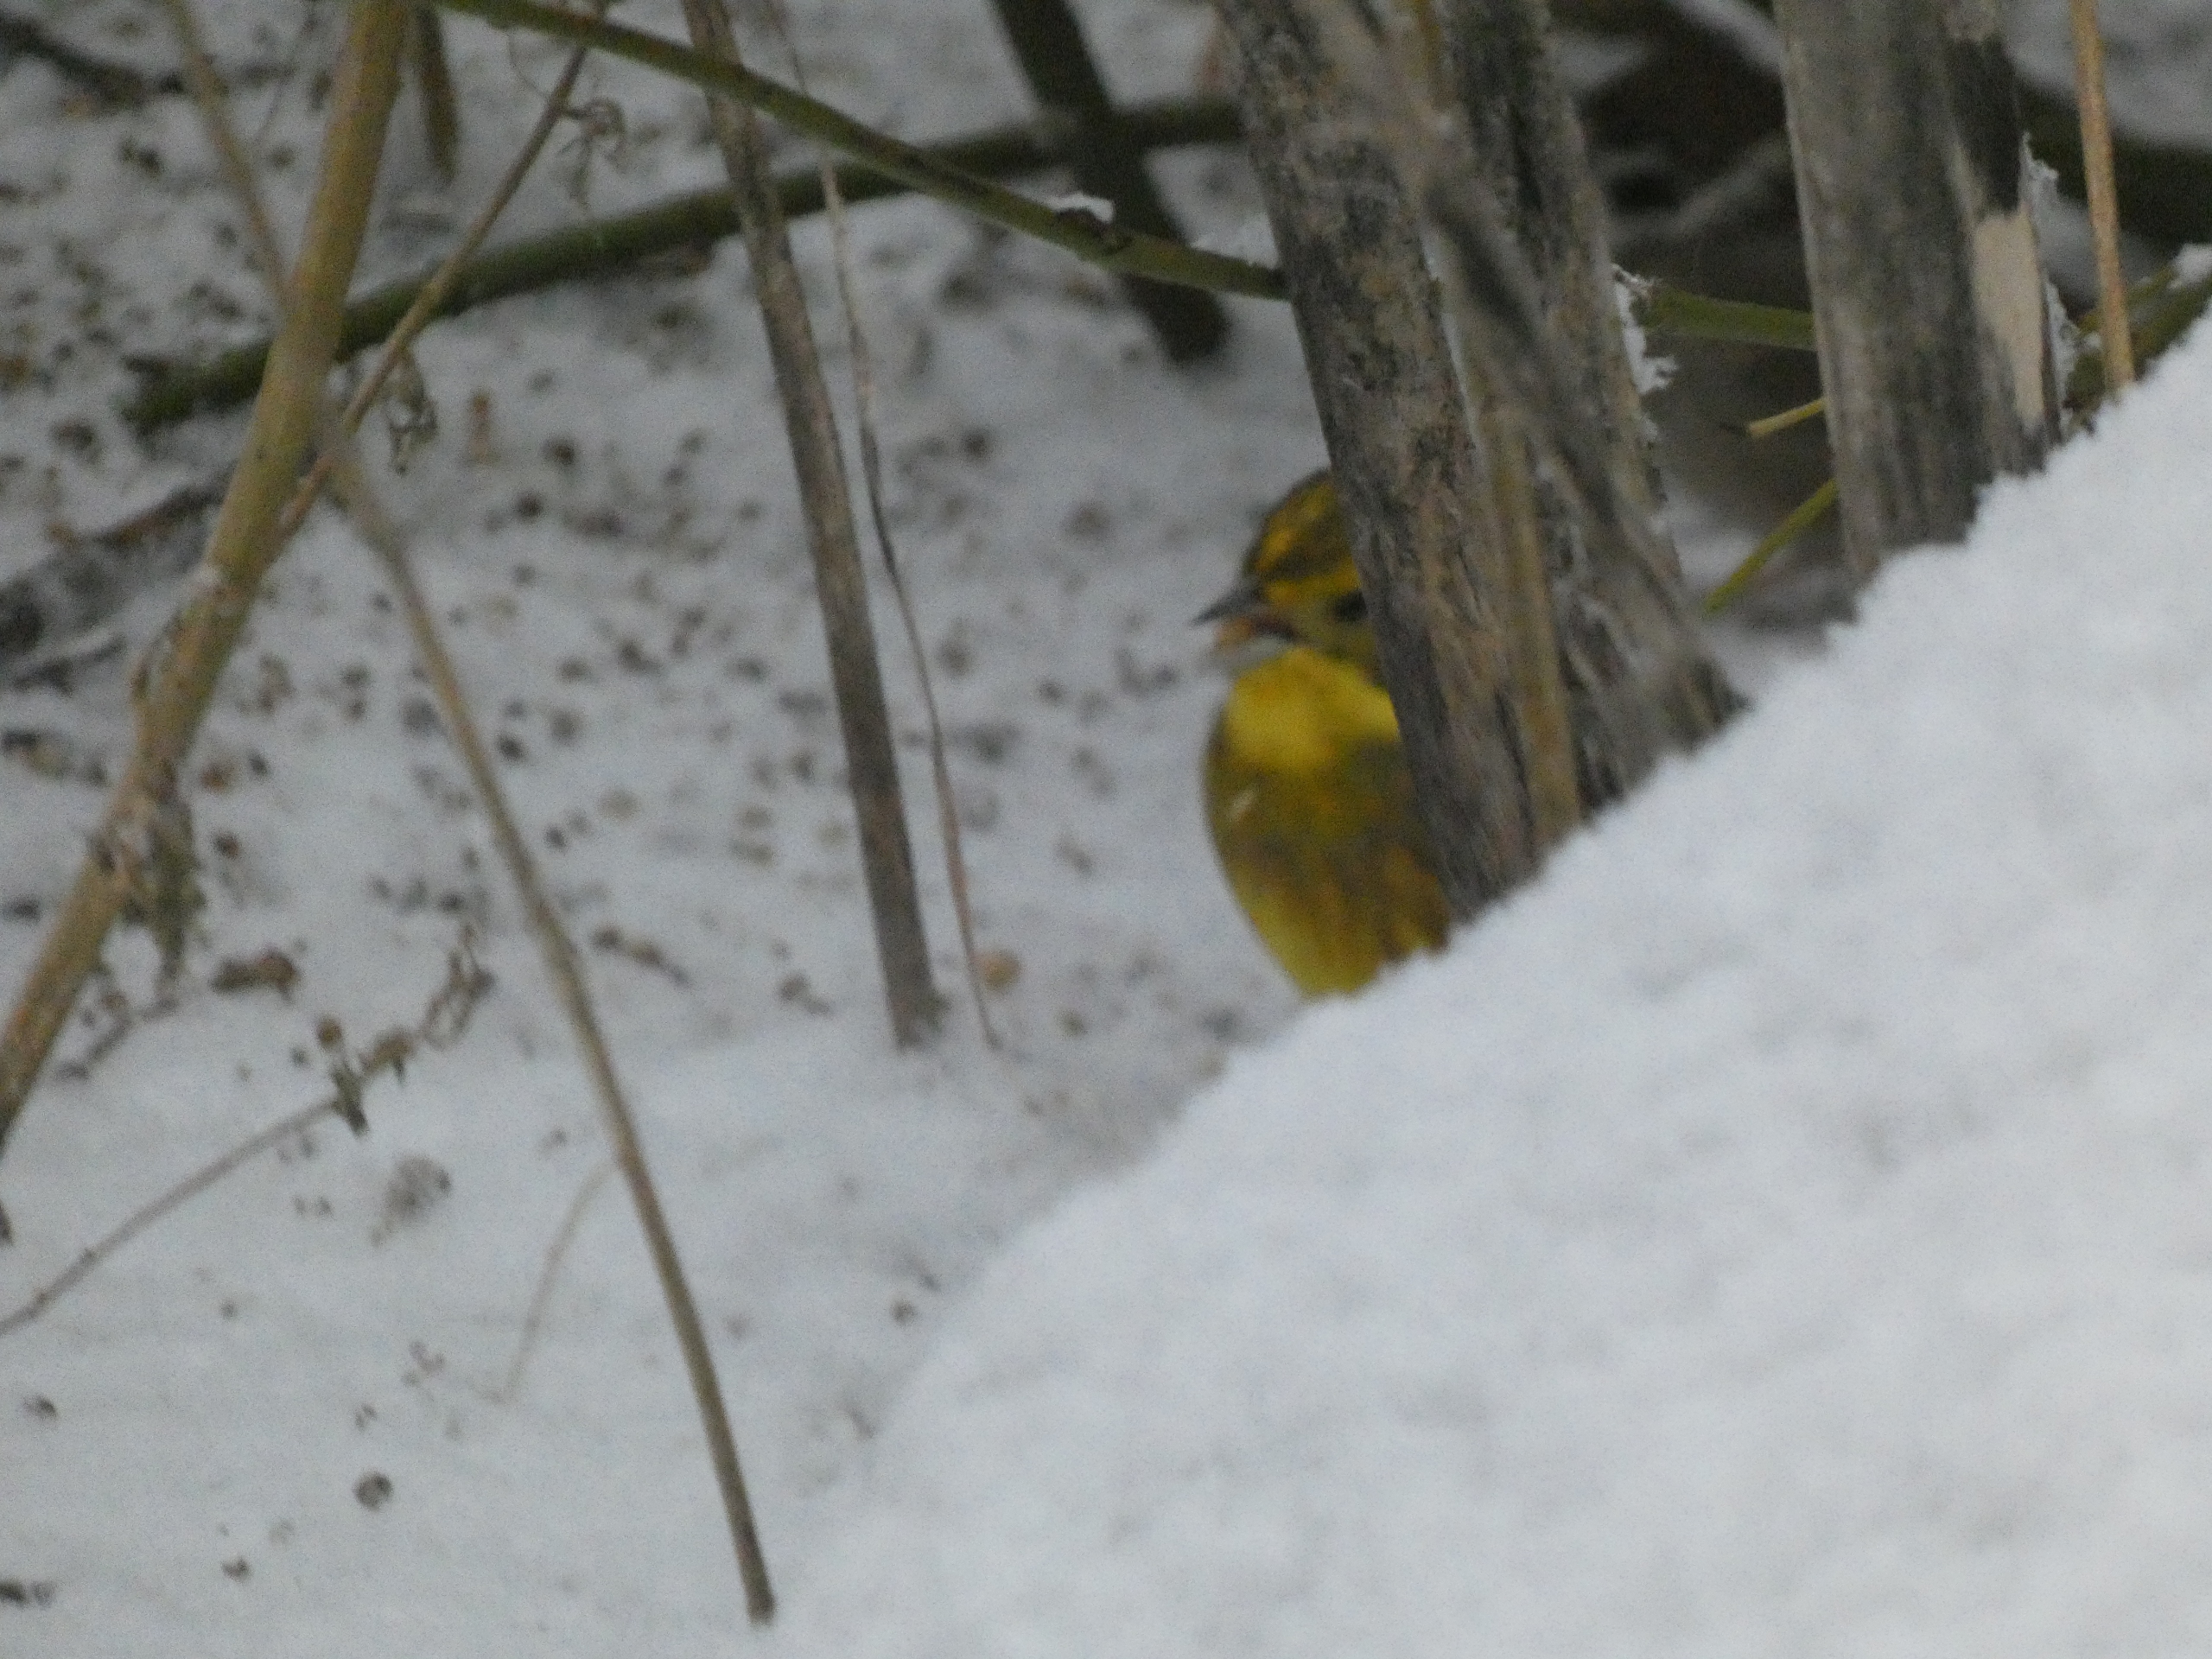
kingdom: Animalia
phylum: Chordata
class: Aves
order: Passeriformes
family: Emberizidae
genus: Emberiza
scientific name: Emberiza citrinella
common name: Gulspurv
